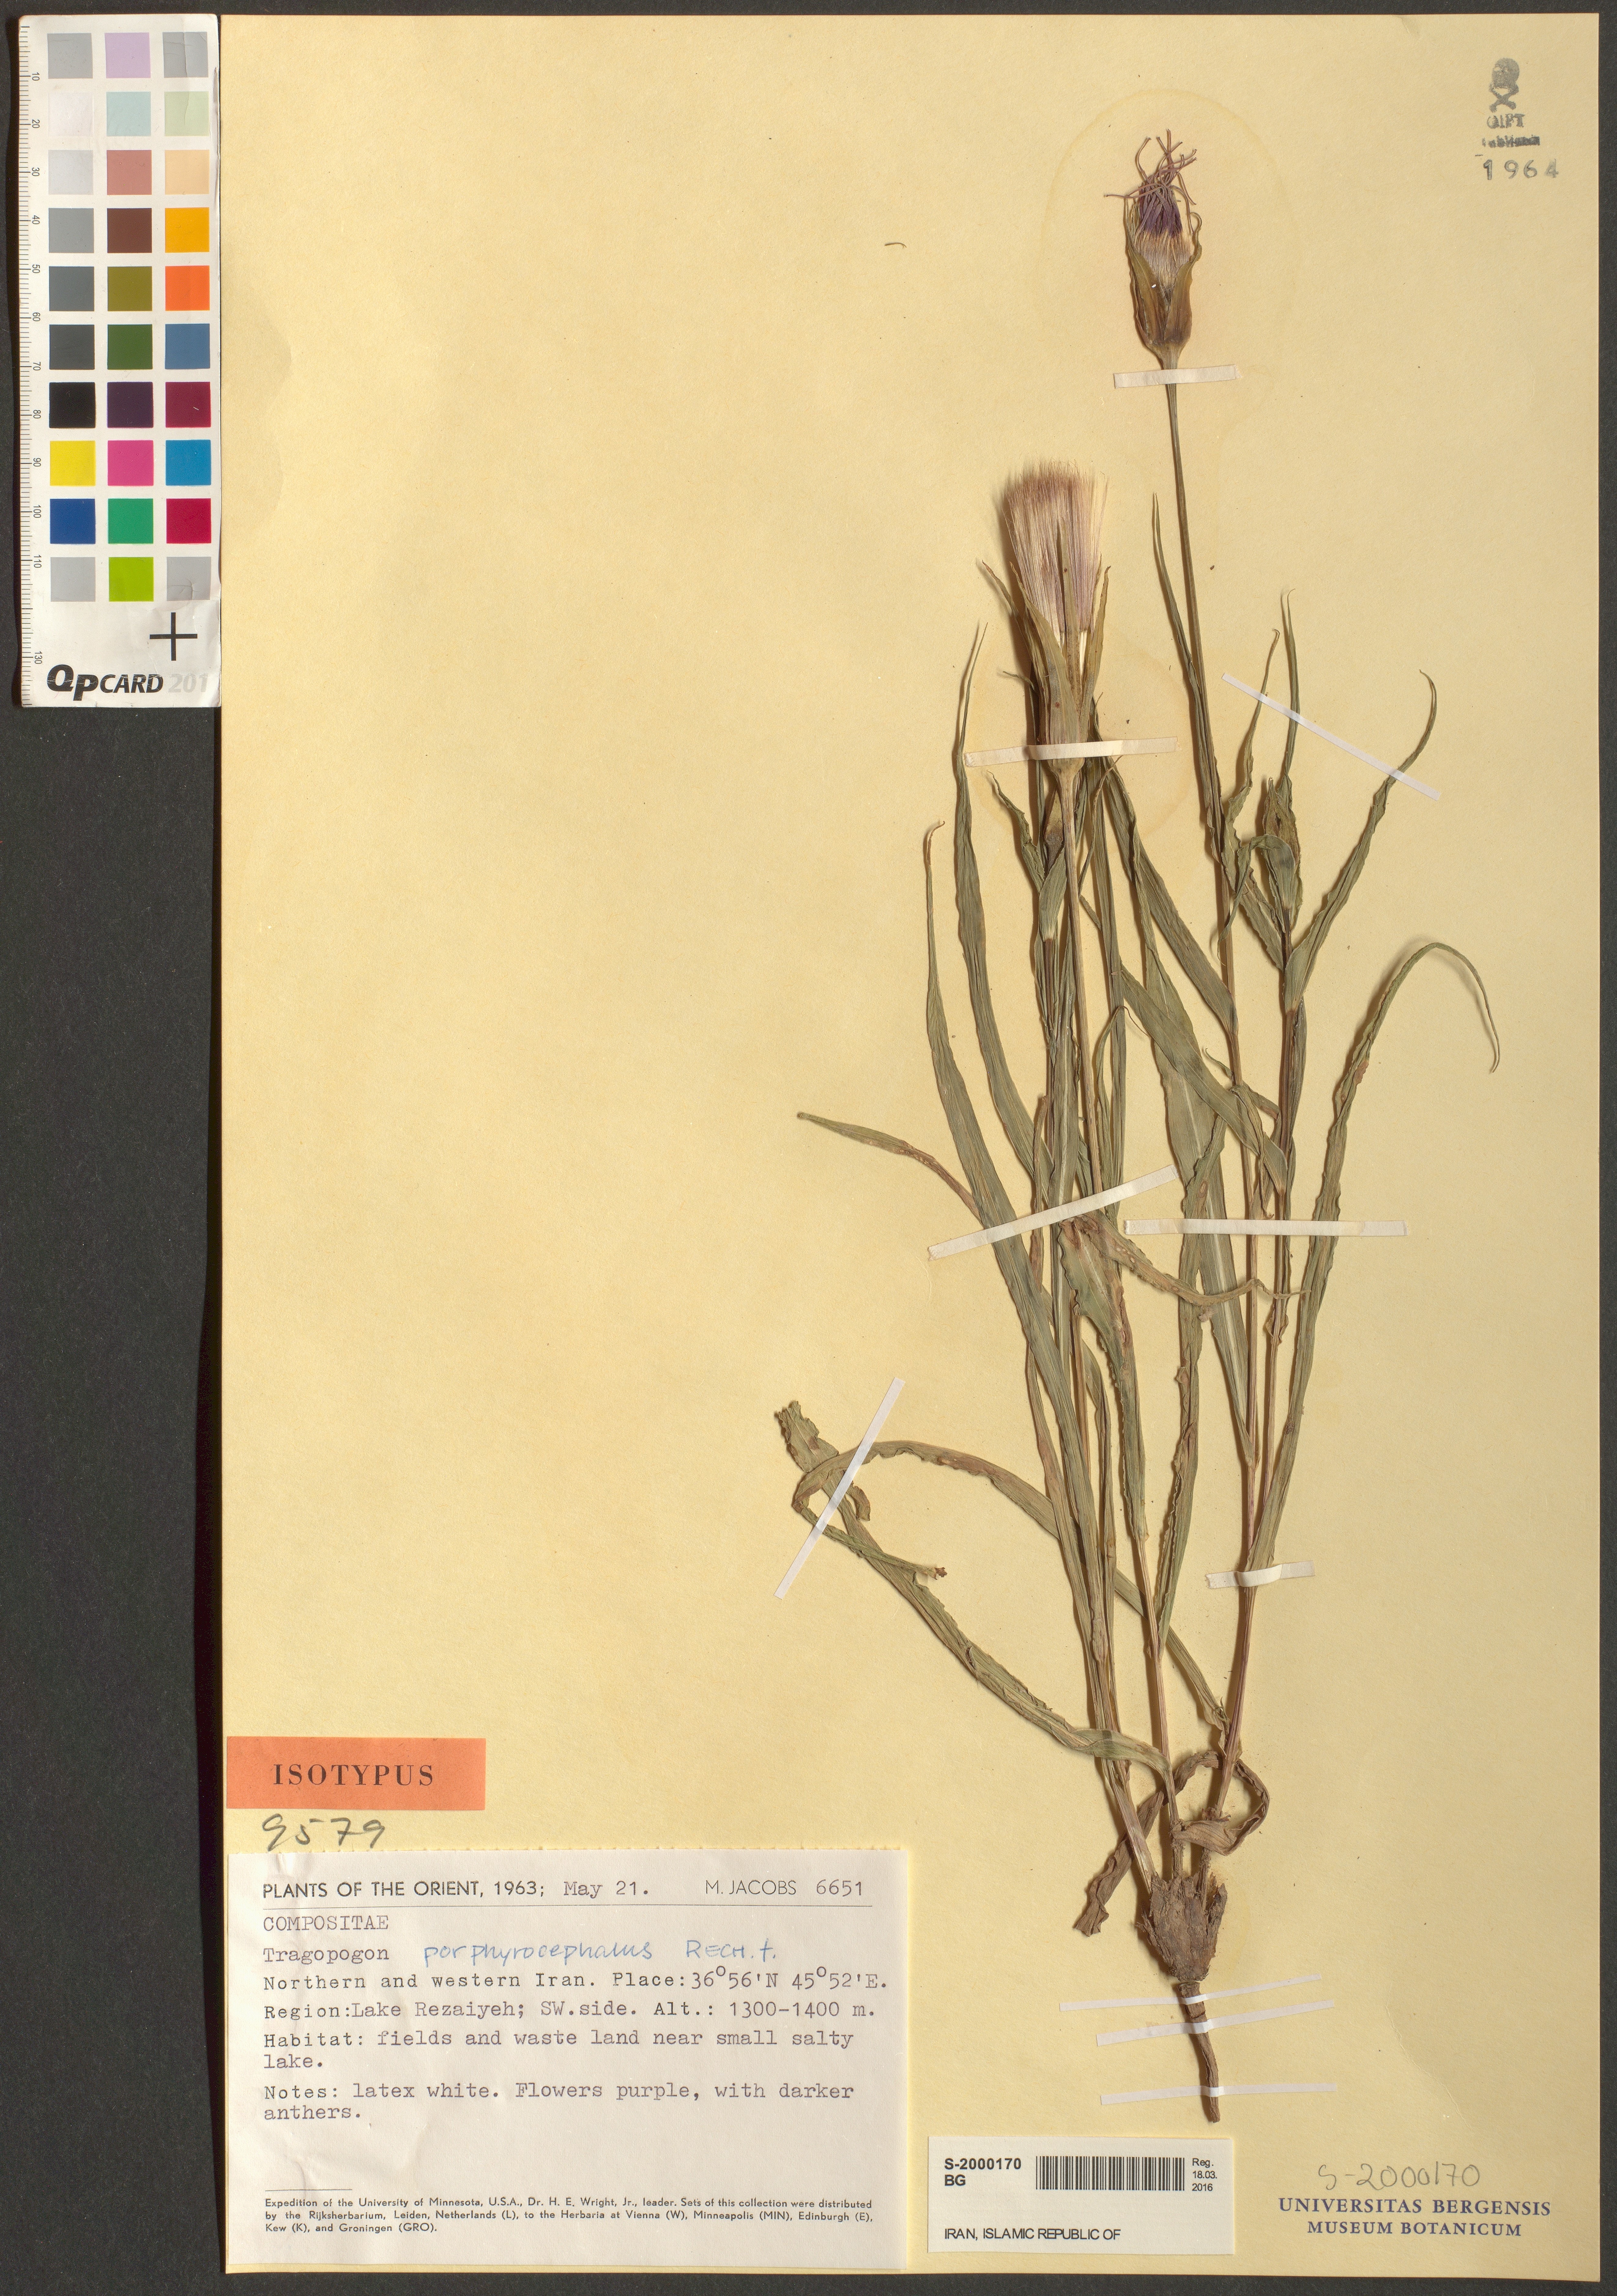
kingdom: Plantae
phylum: Tracheophyta
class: Magnoliopsida
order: Asterales
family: Asteraceae
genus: Tragopogon
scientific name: Tragopogon porphyrocephalus
